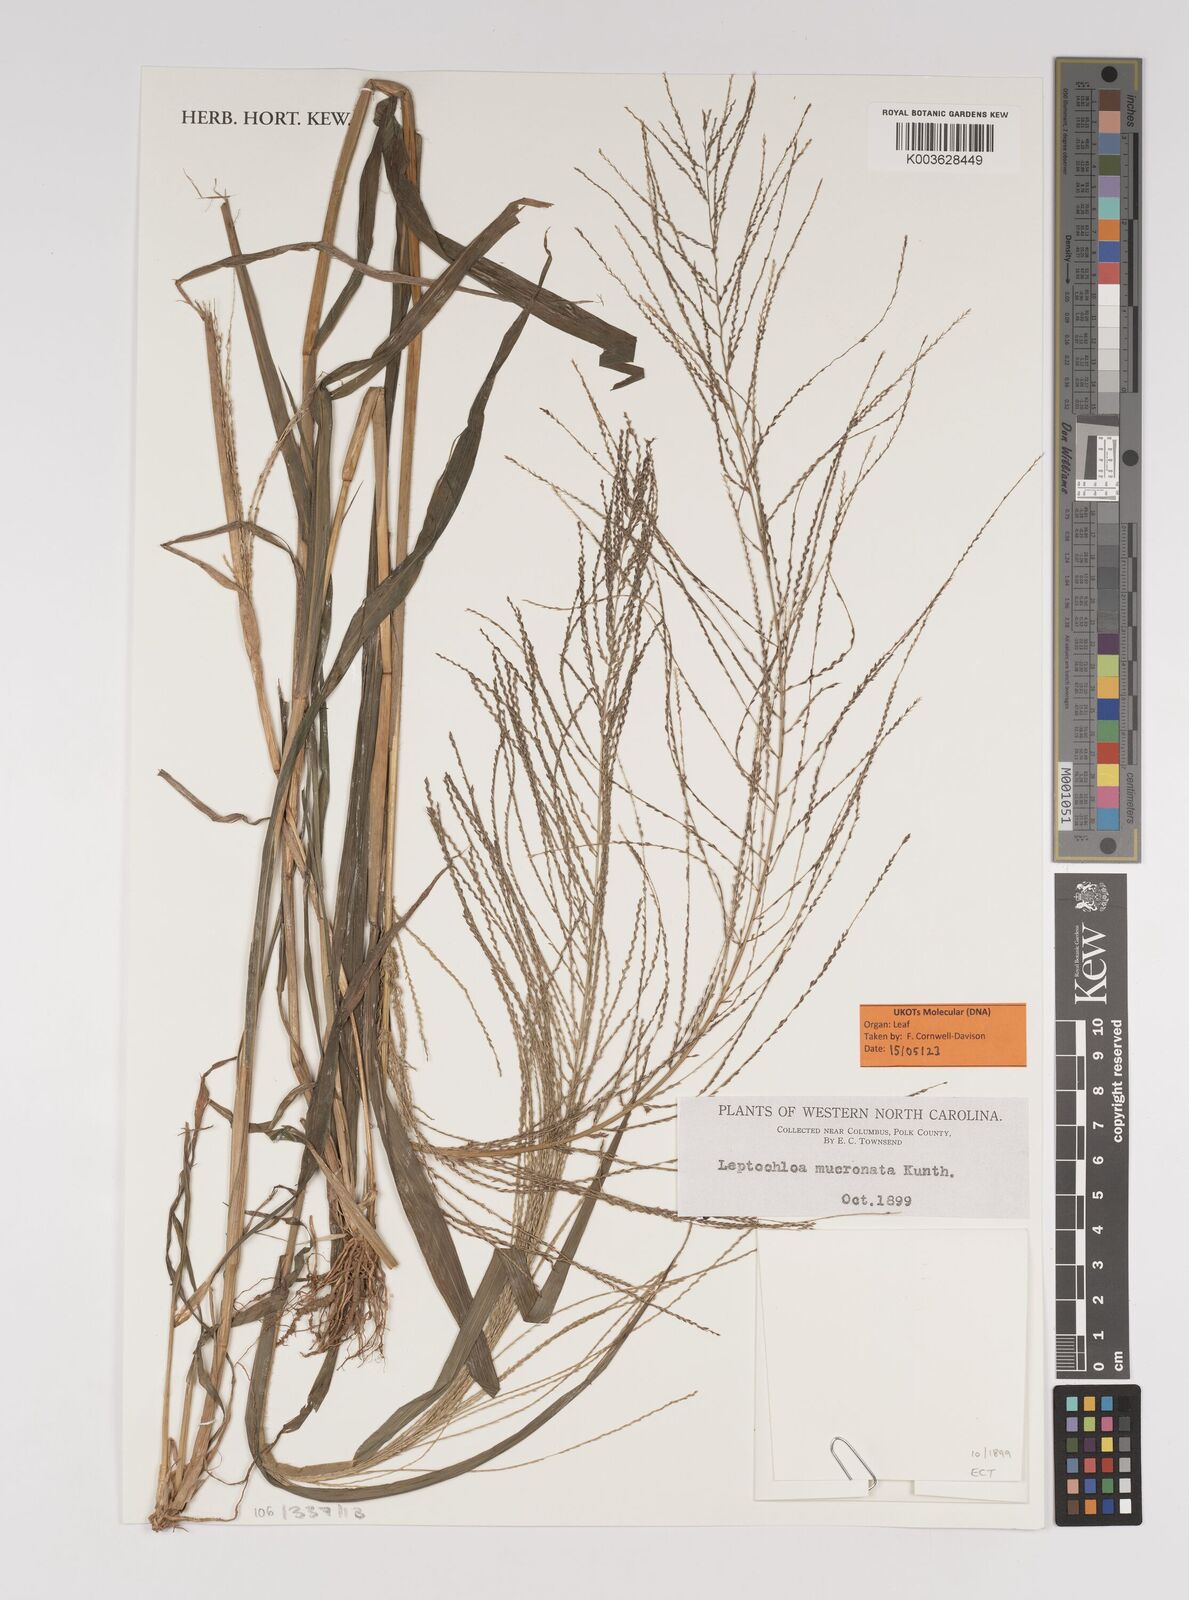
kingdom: Plantae
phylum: Tracheophyta
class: Liliopsida
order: Poales
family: Poaceae
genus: Leptochloa
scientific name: Leptochloa mucronata
